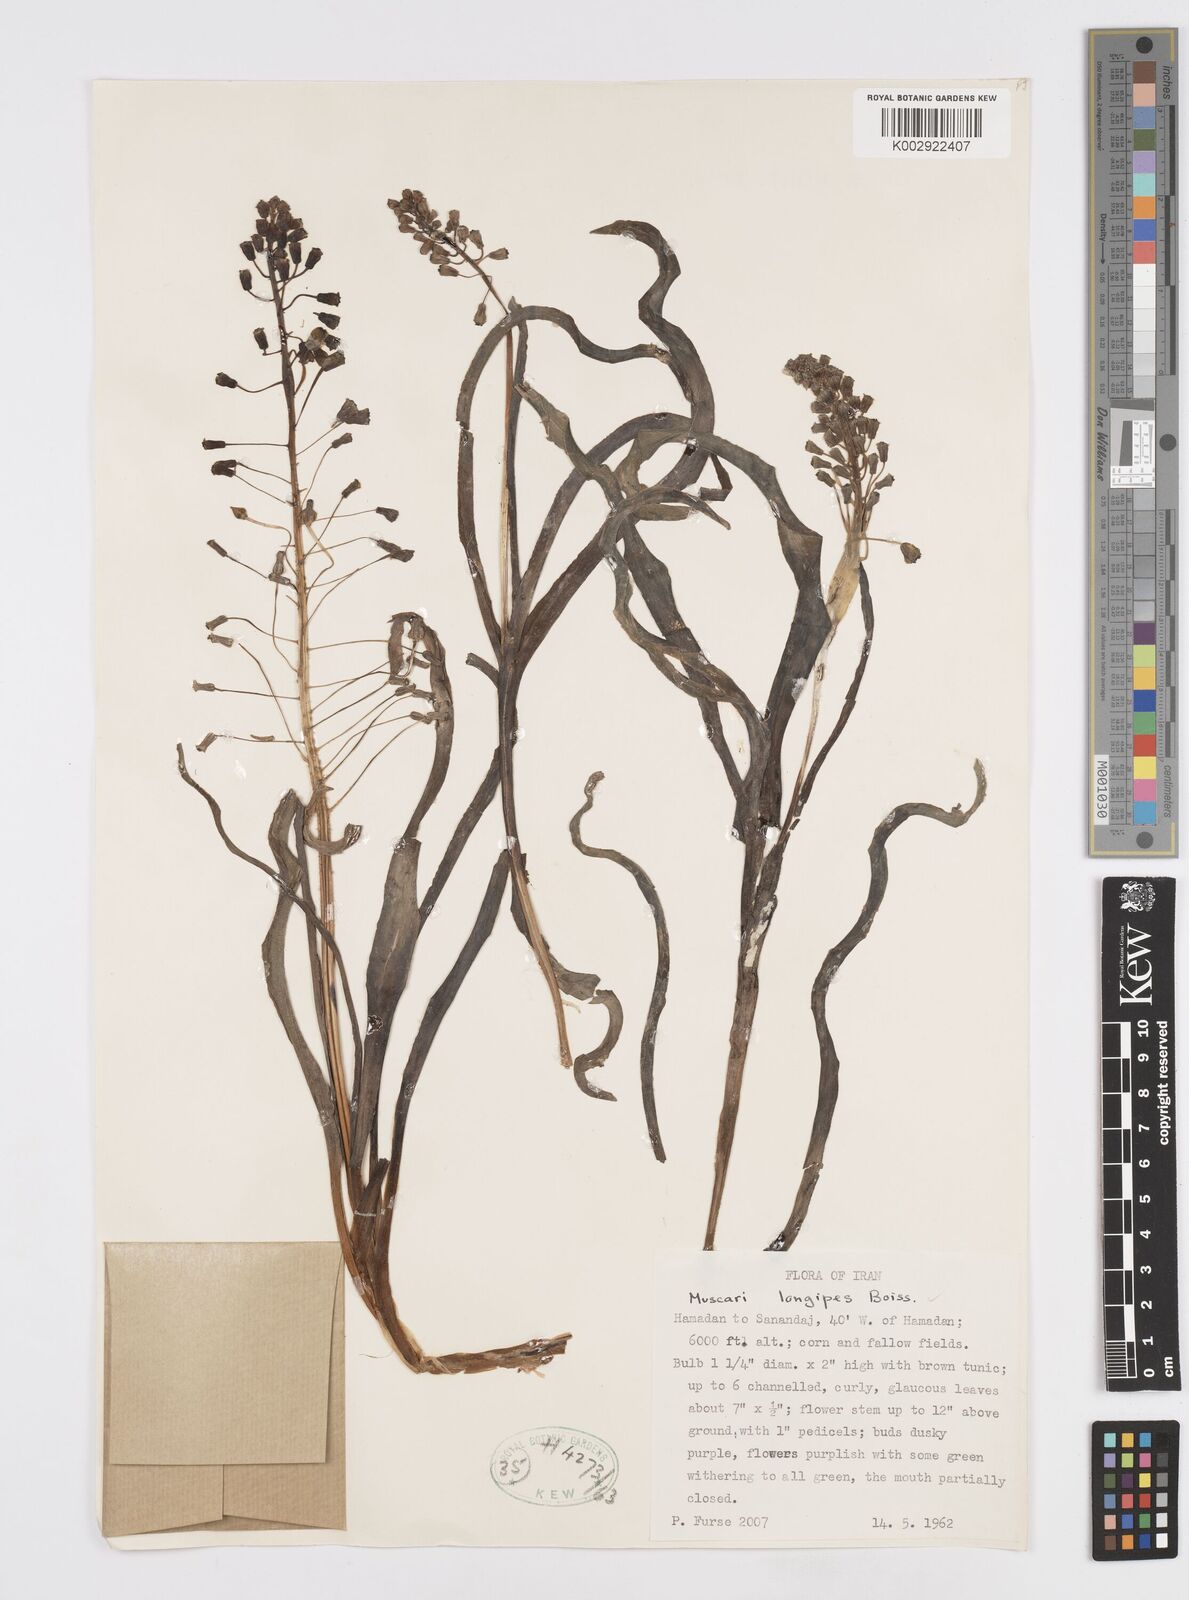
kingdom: Plantae
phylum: Tracheophyta
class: Liliopsida
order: Asparagales
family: Asparagaceae
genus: Muscari
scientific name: Muscari longipes
